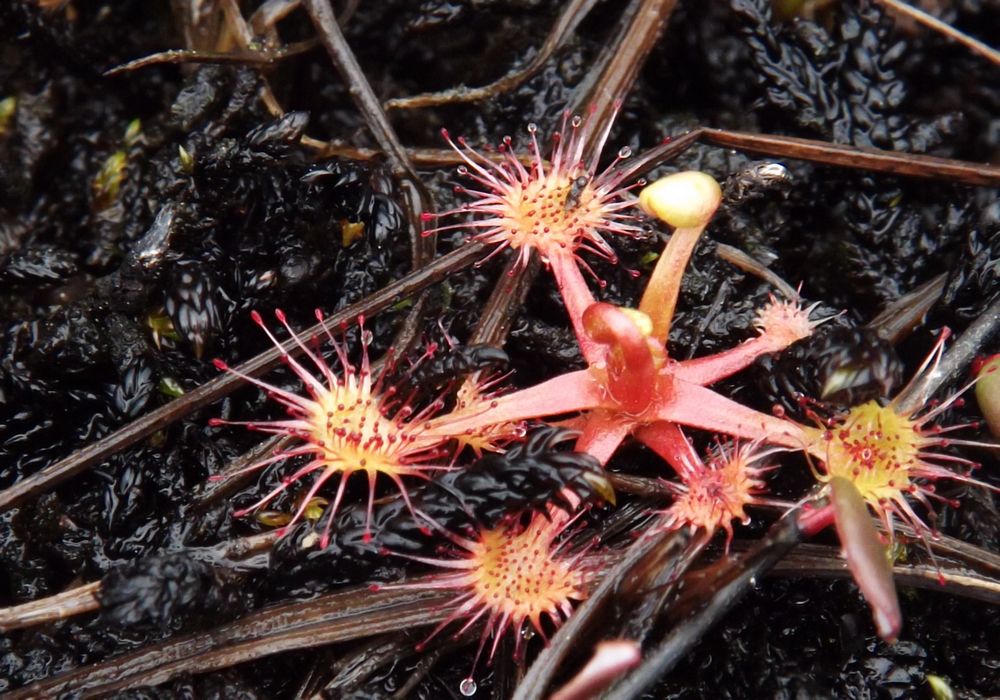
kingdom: Plantae
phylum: Tracheophyta
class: Magnoliopsida
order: Caryophyllales
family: Droseraceae
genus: Drosera
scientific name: Drosera
